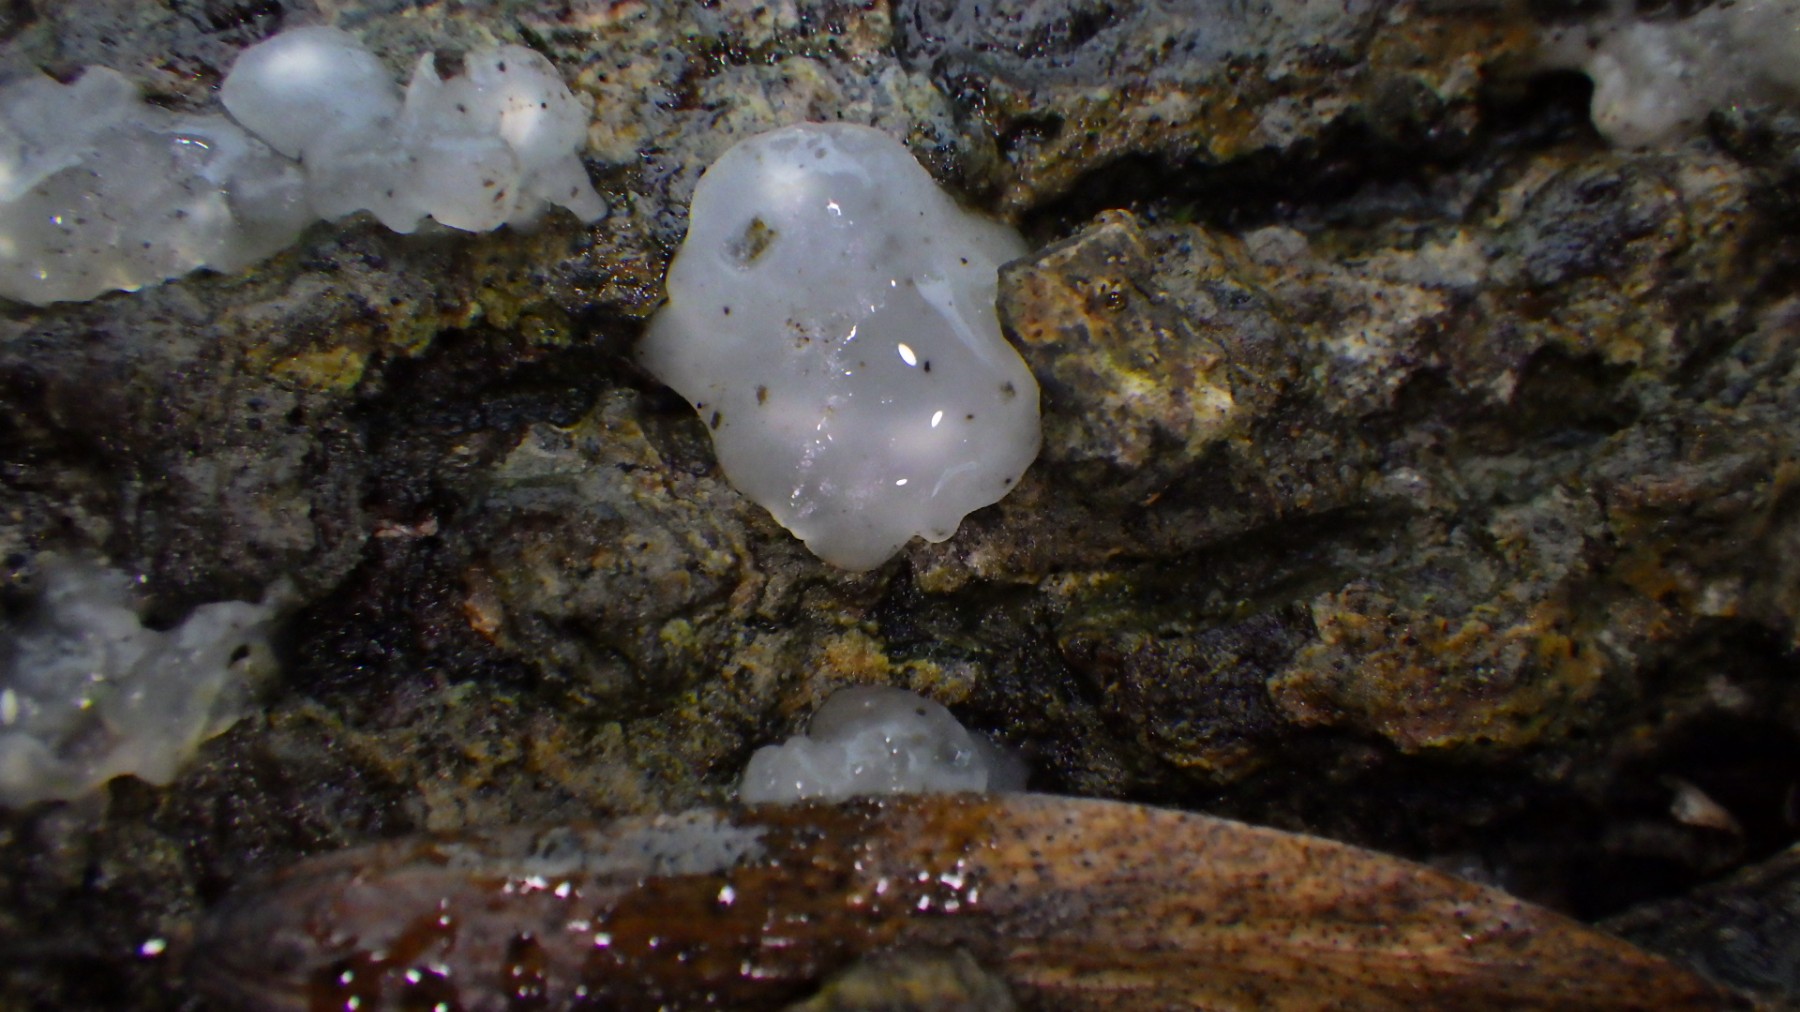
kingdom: Fungi
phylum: Basidiomycota
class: Agaricomycetes
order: Auriculariales
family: Hyaloriaceae
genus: Myxarium
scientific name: Myxarium nucleatum
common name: klar bævretop
